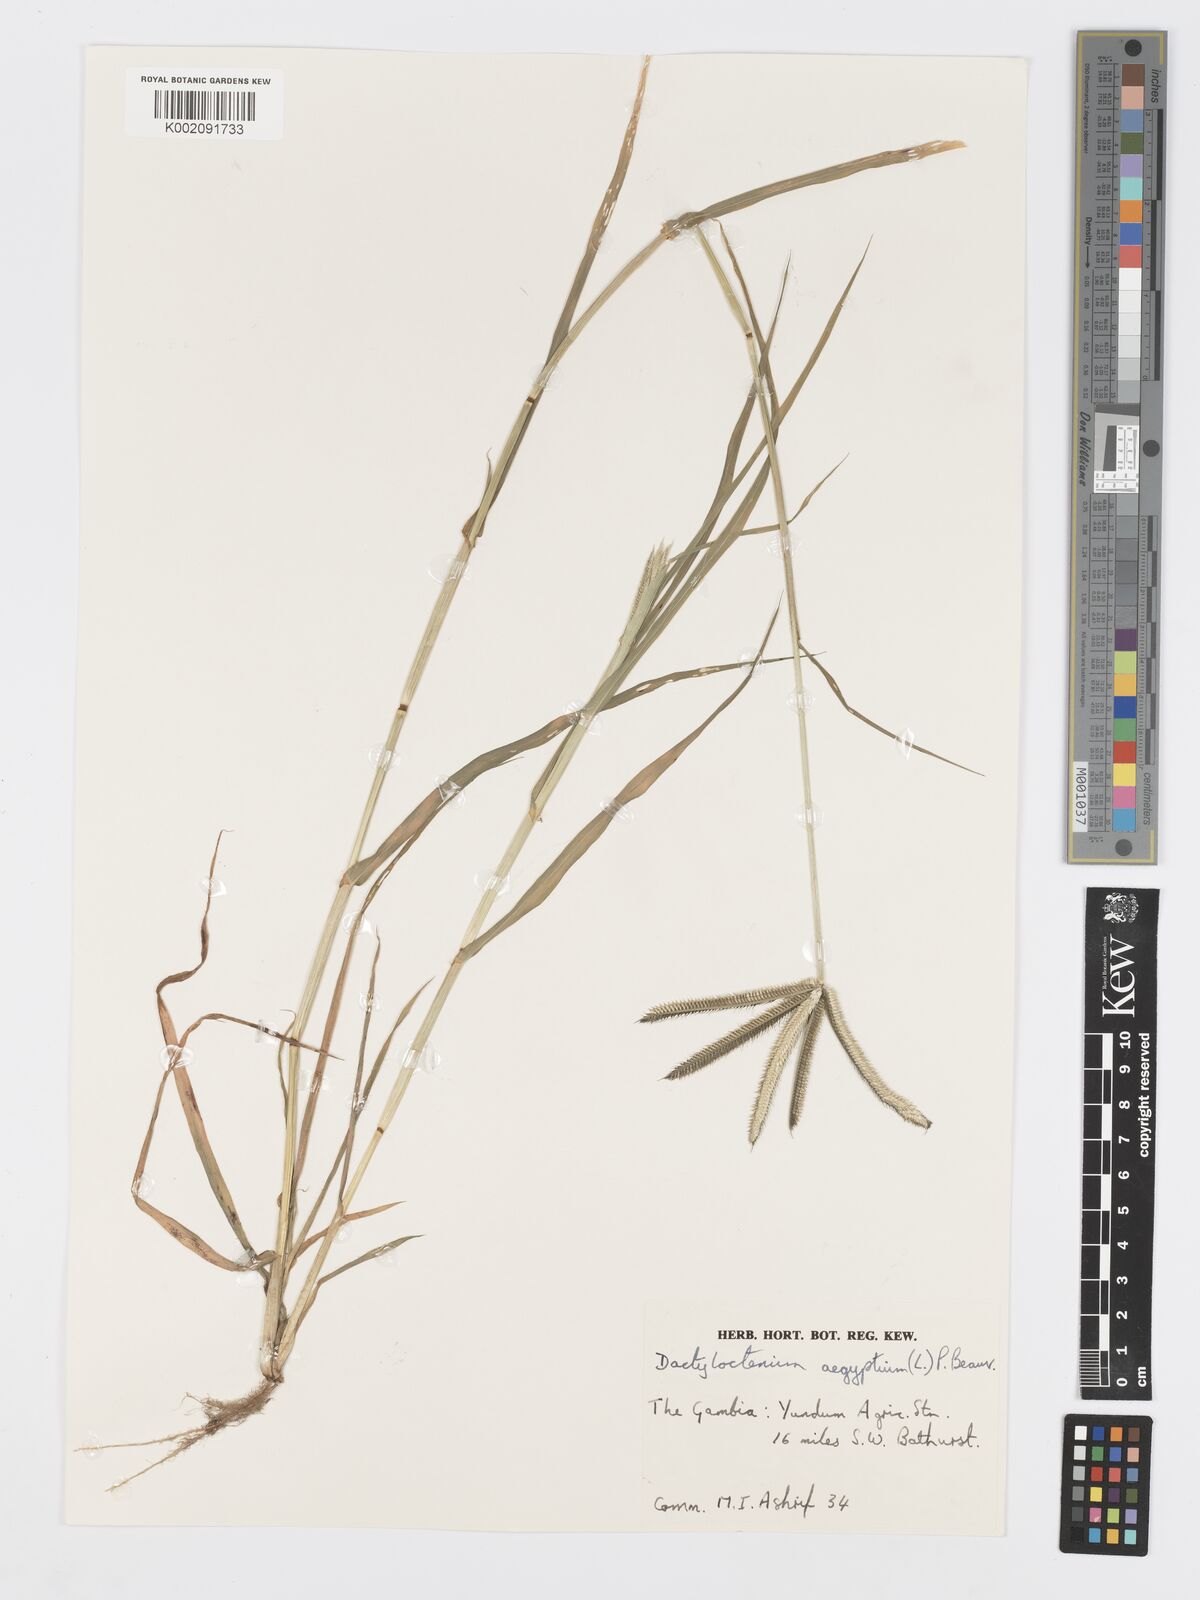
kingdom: Plantae
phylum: Tracheophyta
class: Liliopsida
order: Poales
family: Poaceae
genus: Dactyloctenium
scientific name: Dactyloctenium aegyptium
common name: Egyptian grass
